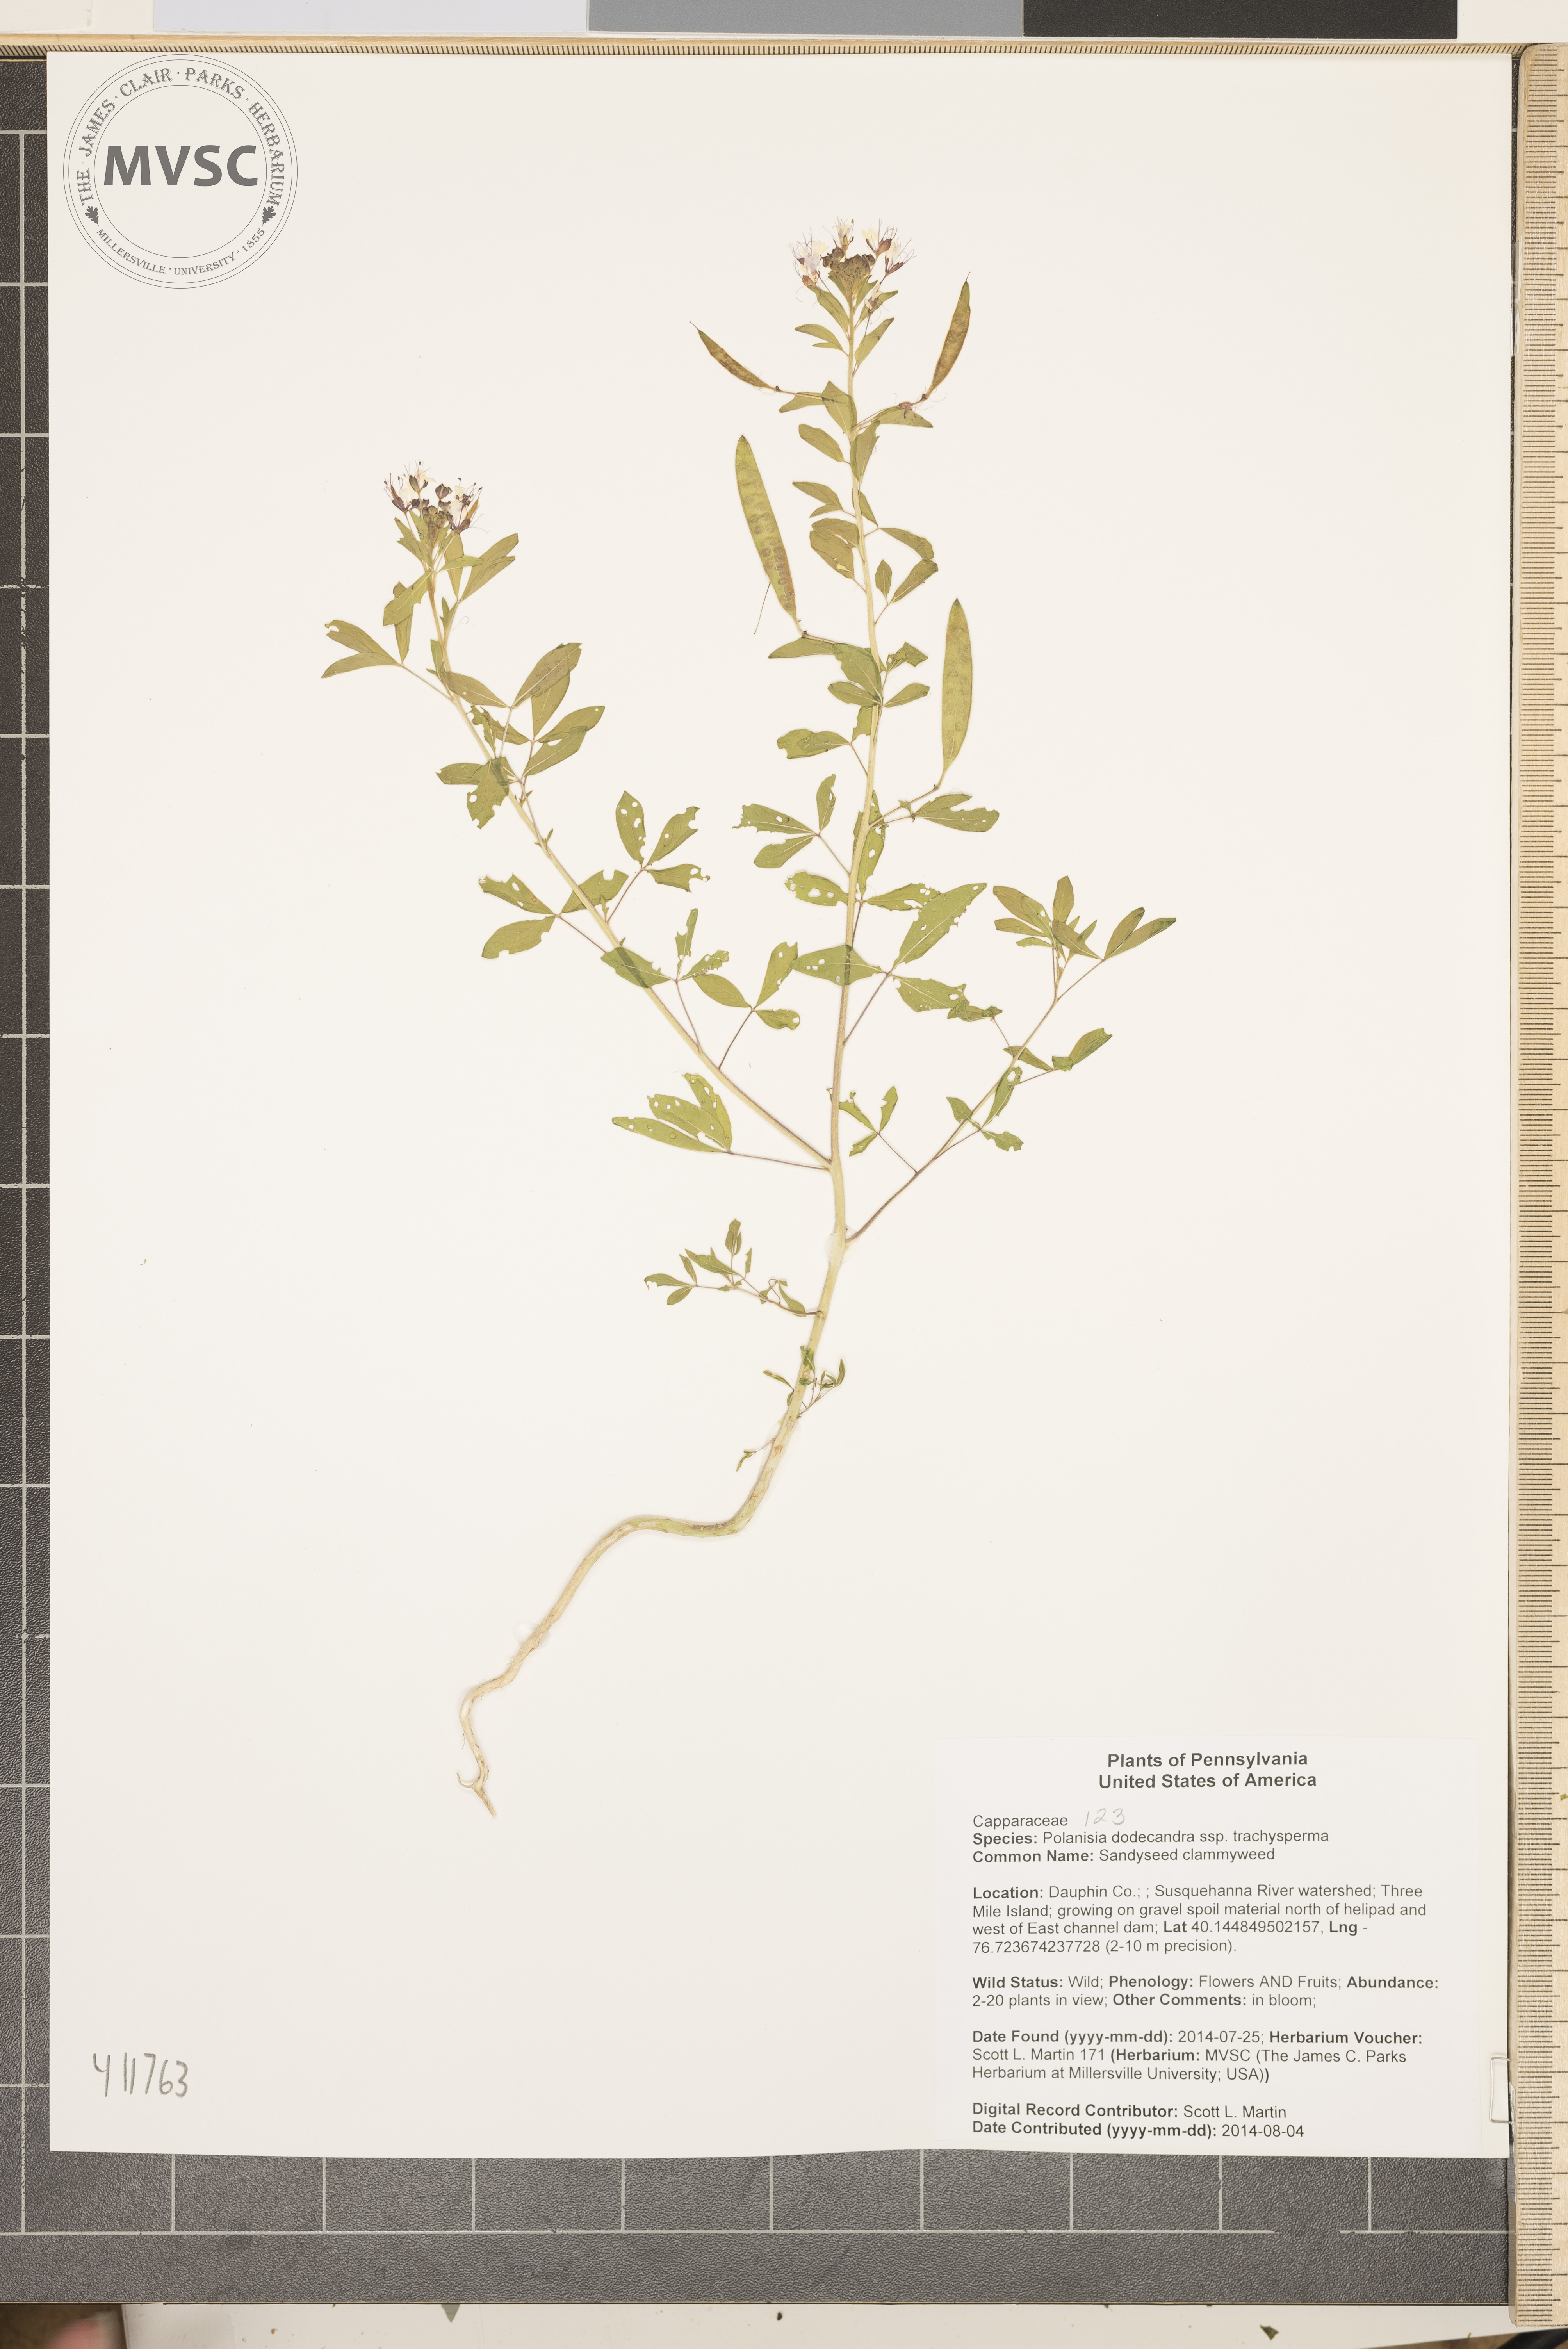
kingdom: Plantae
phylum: Tracheophyta
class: Magnoliopsida
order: Brassicales
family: Cleomaceae
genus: Polanisia
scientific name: Polanisia dodecandra
